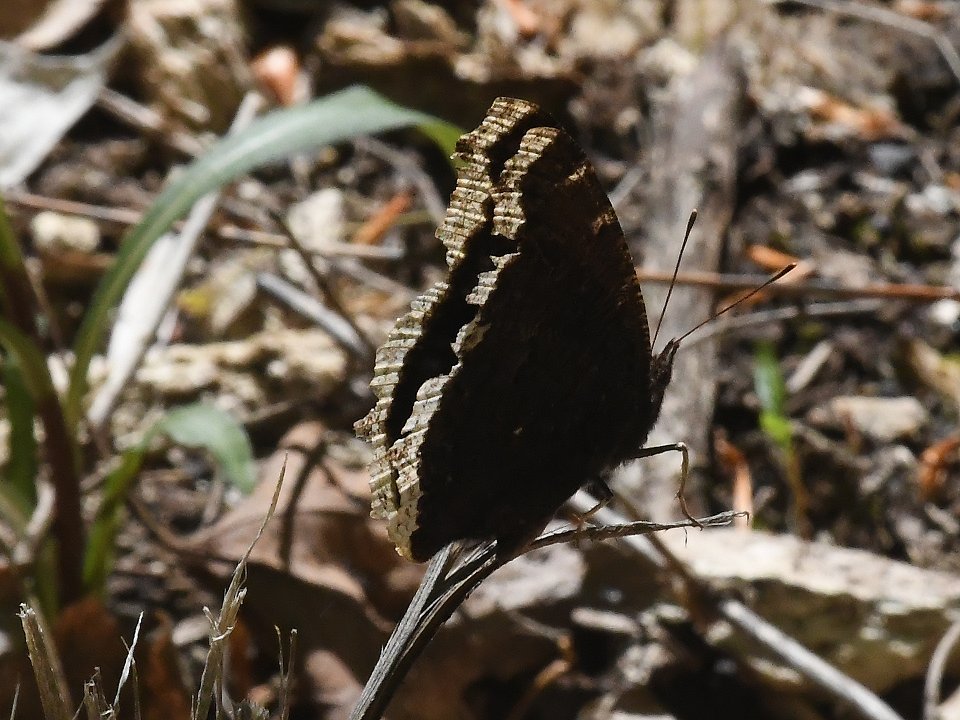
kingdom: Animalia
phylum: Arthropoda
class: Insecta
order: Lepidoptera
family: Nymphalidae
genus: Nymphalis
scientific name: Nymphalis antiopa
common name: Mourning Cloak
